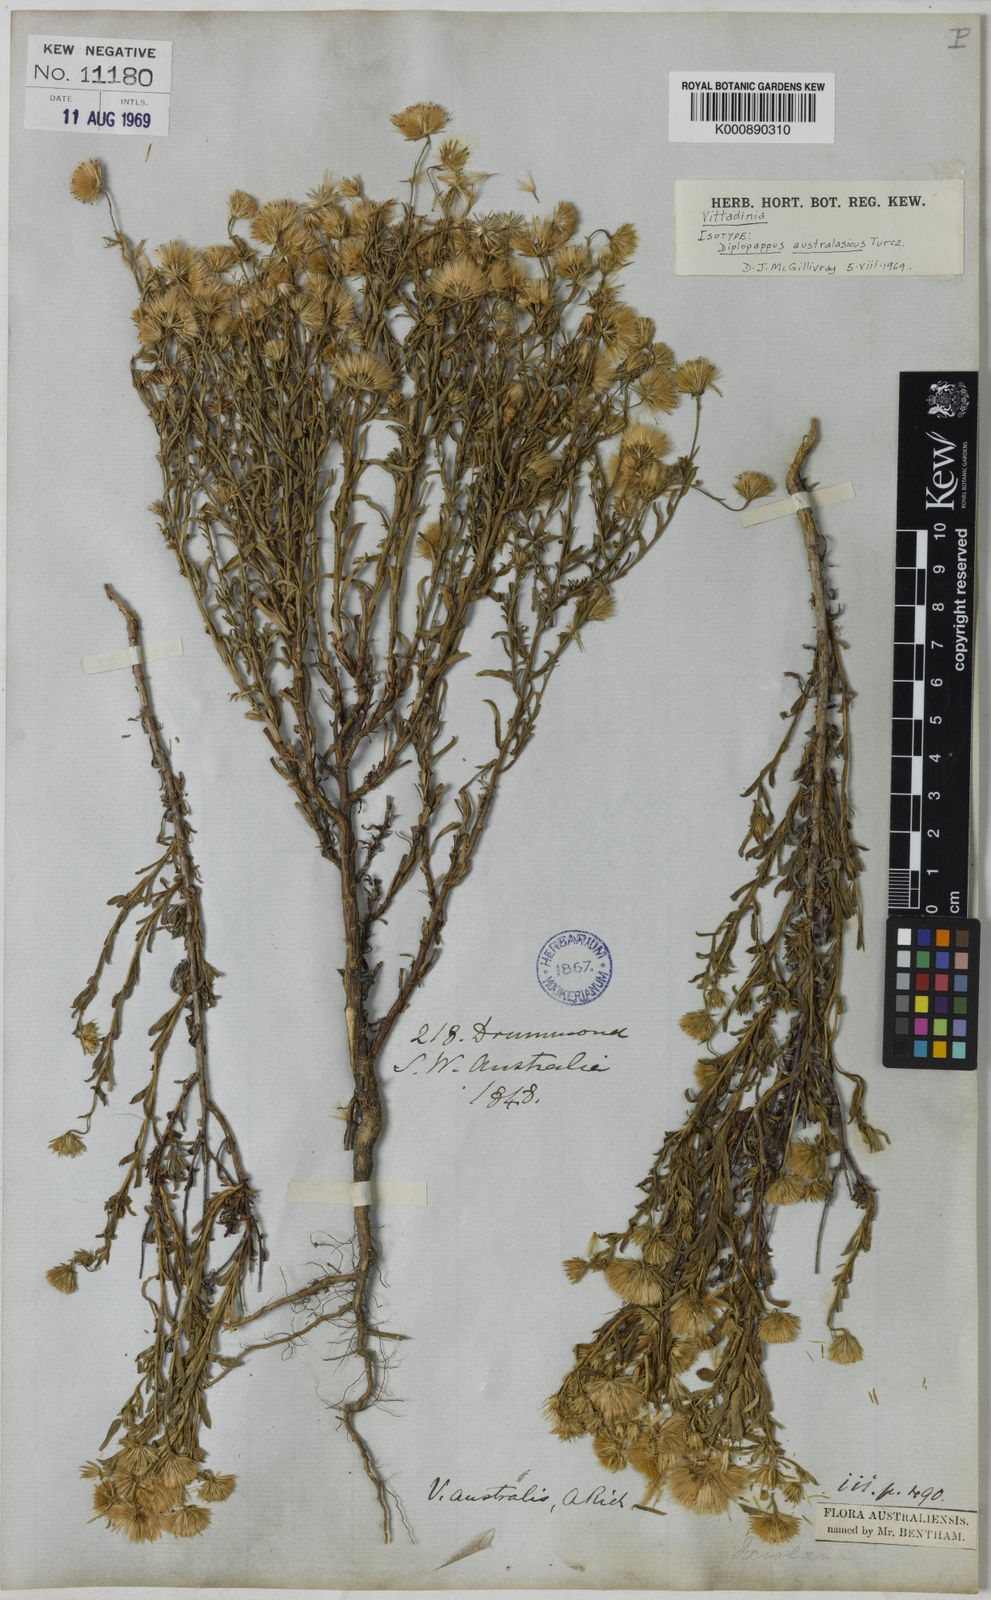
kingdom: Plantae
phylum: Tracheophyta
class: Magnoliopsida
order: Asterales
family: Asteraceae
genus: Vittadinia
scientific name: Vittadinia
